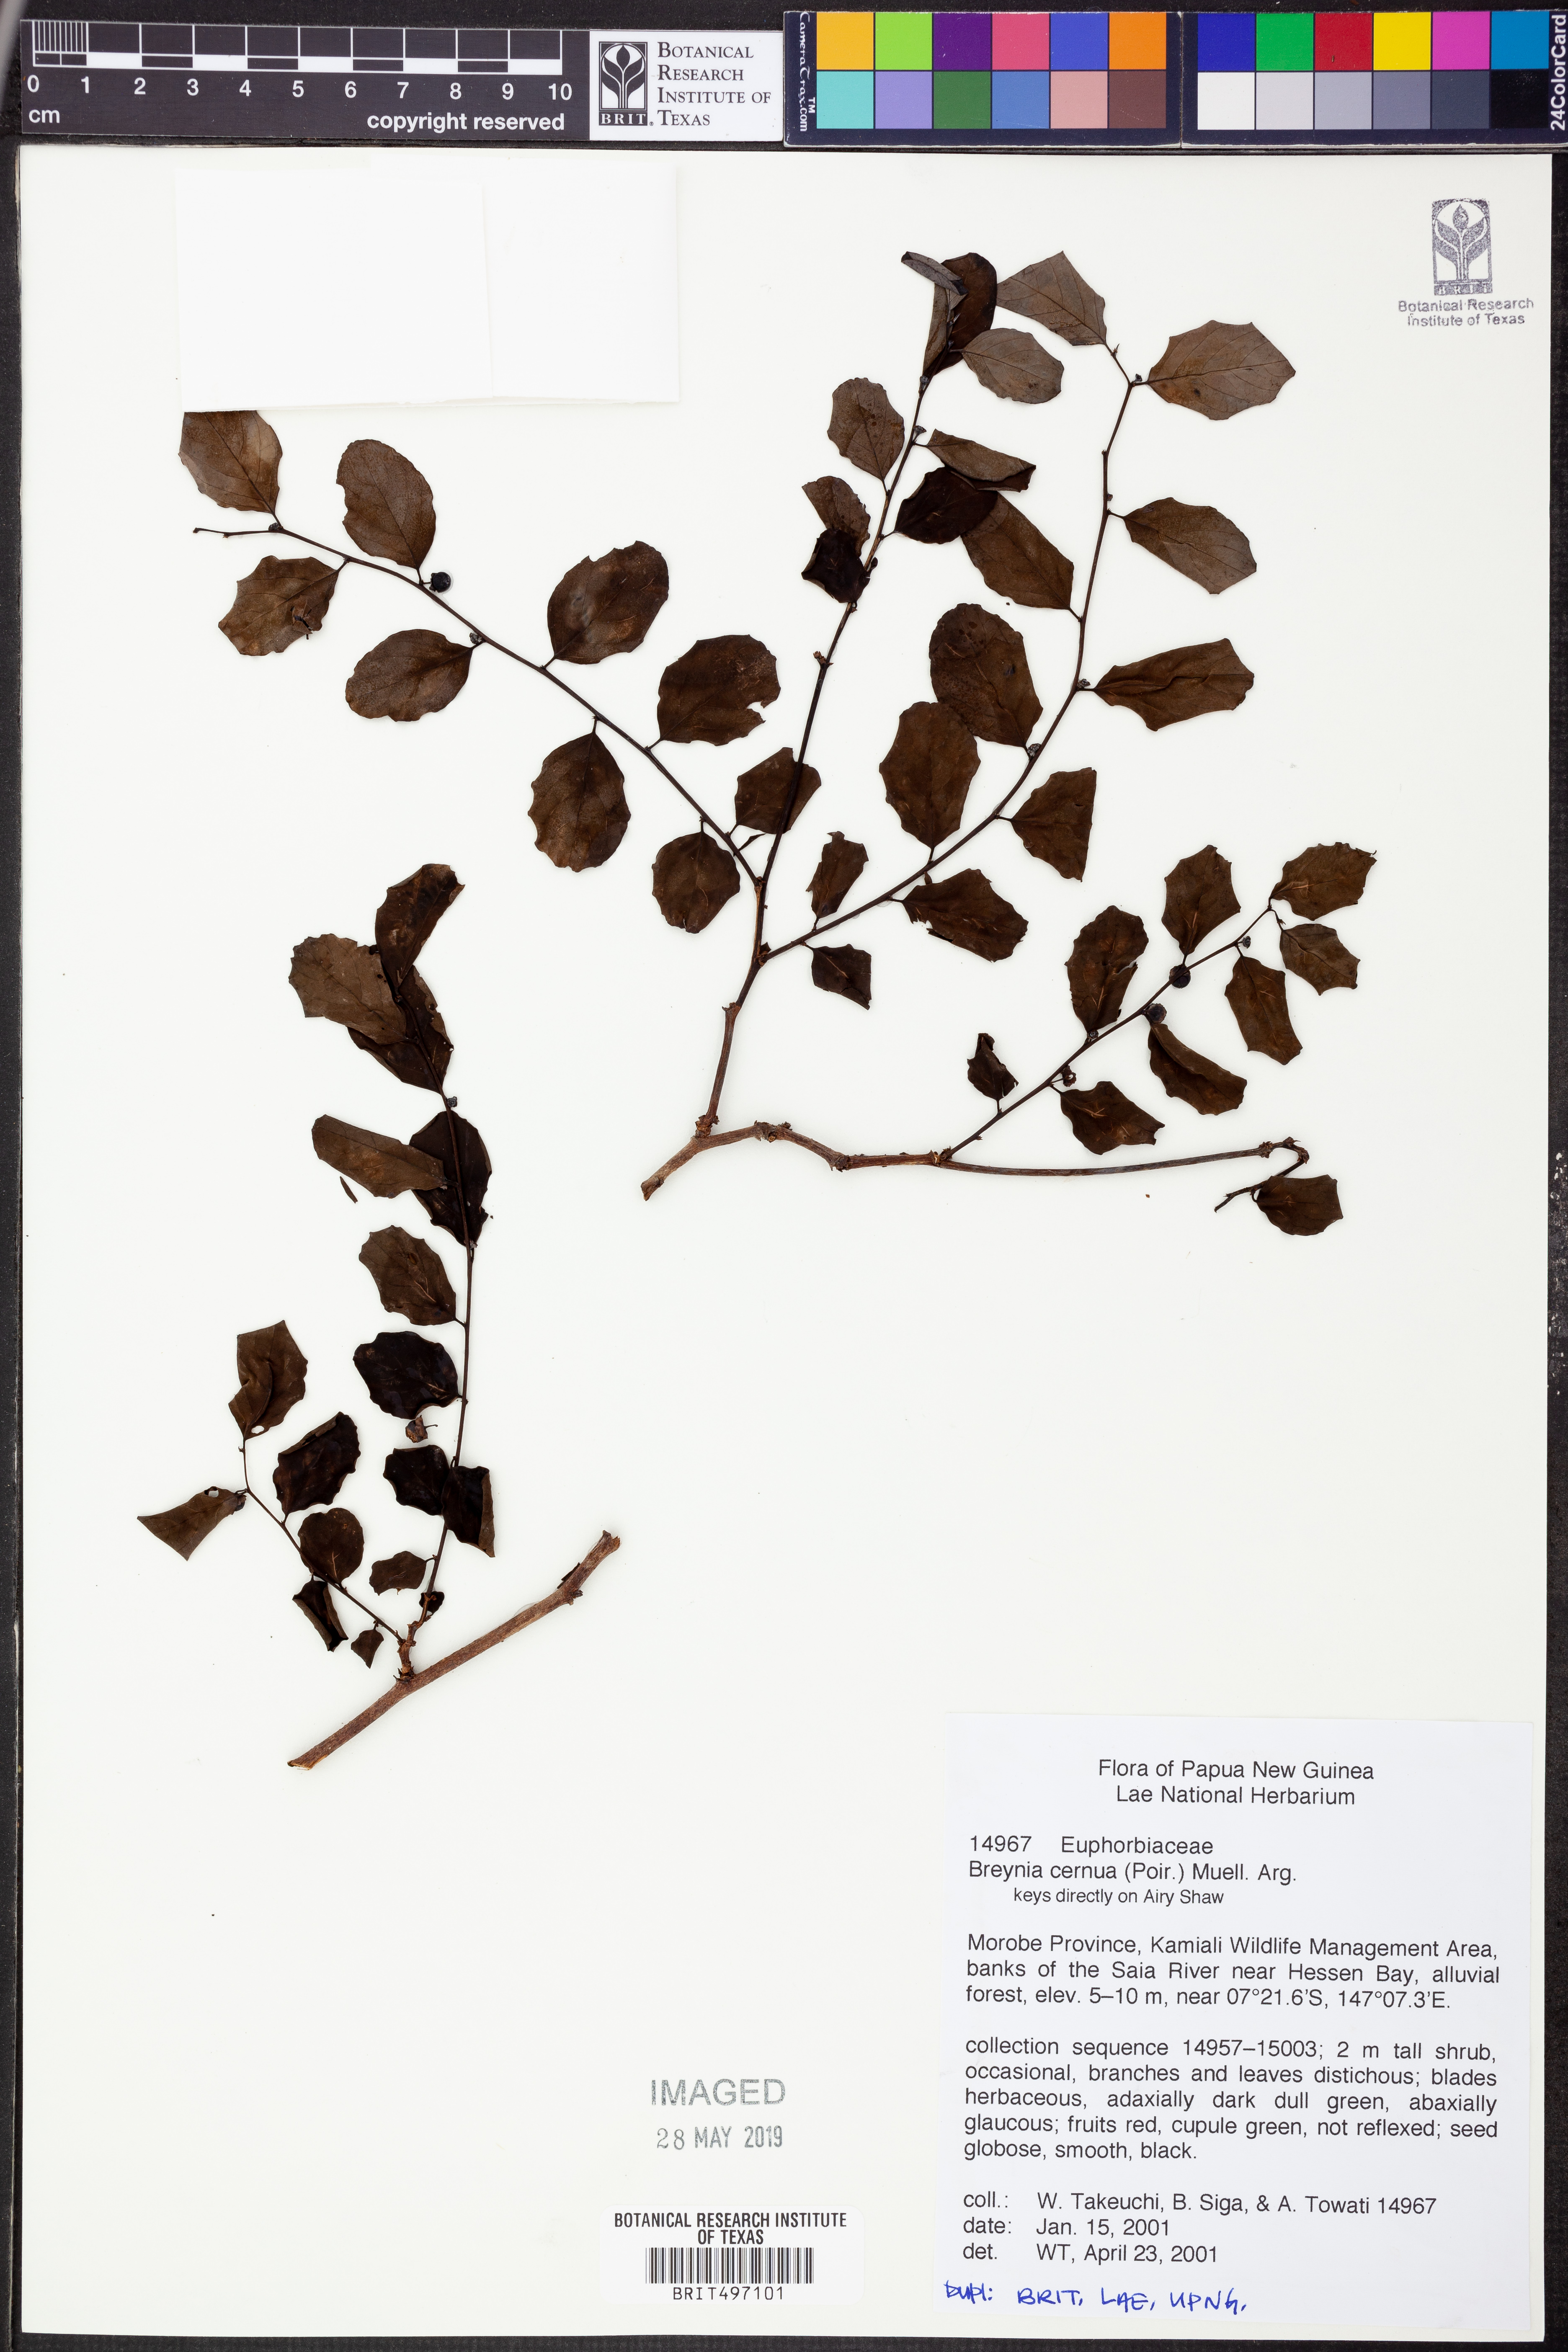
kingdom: Plantae
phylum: Tracheophyta
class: Magnoliopsida
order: Malpighiales
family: Phyllanthaceae
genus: Breynia
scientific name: Breynia cernua
